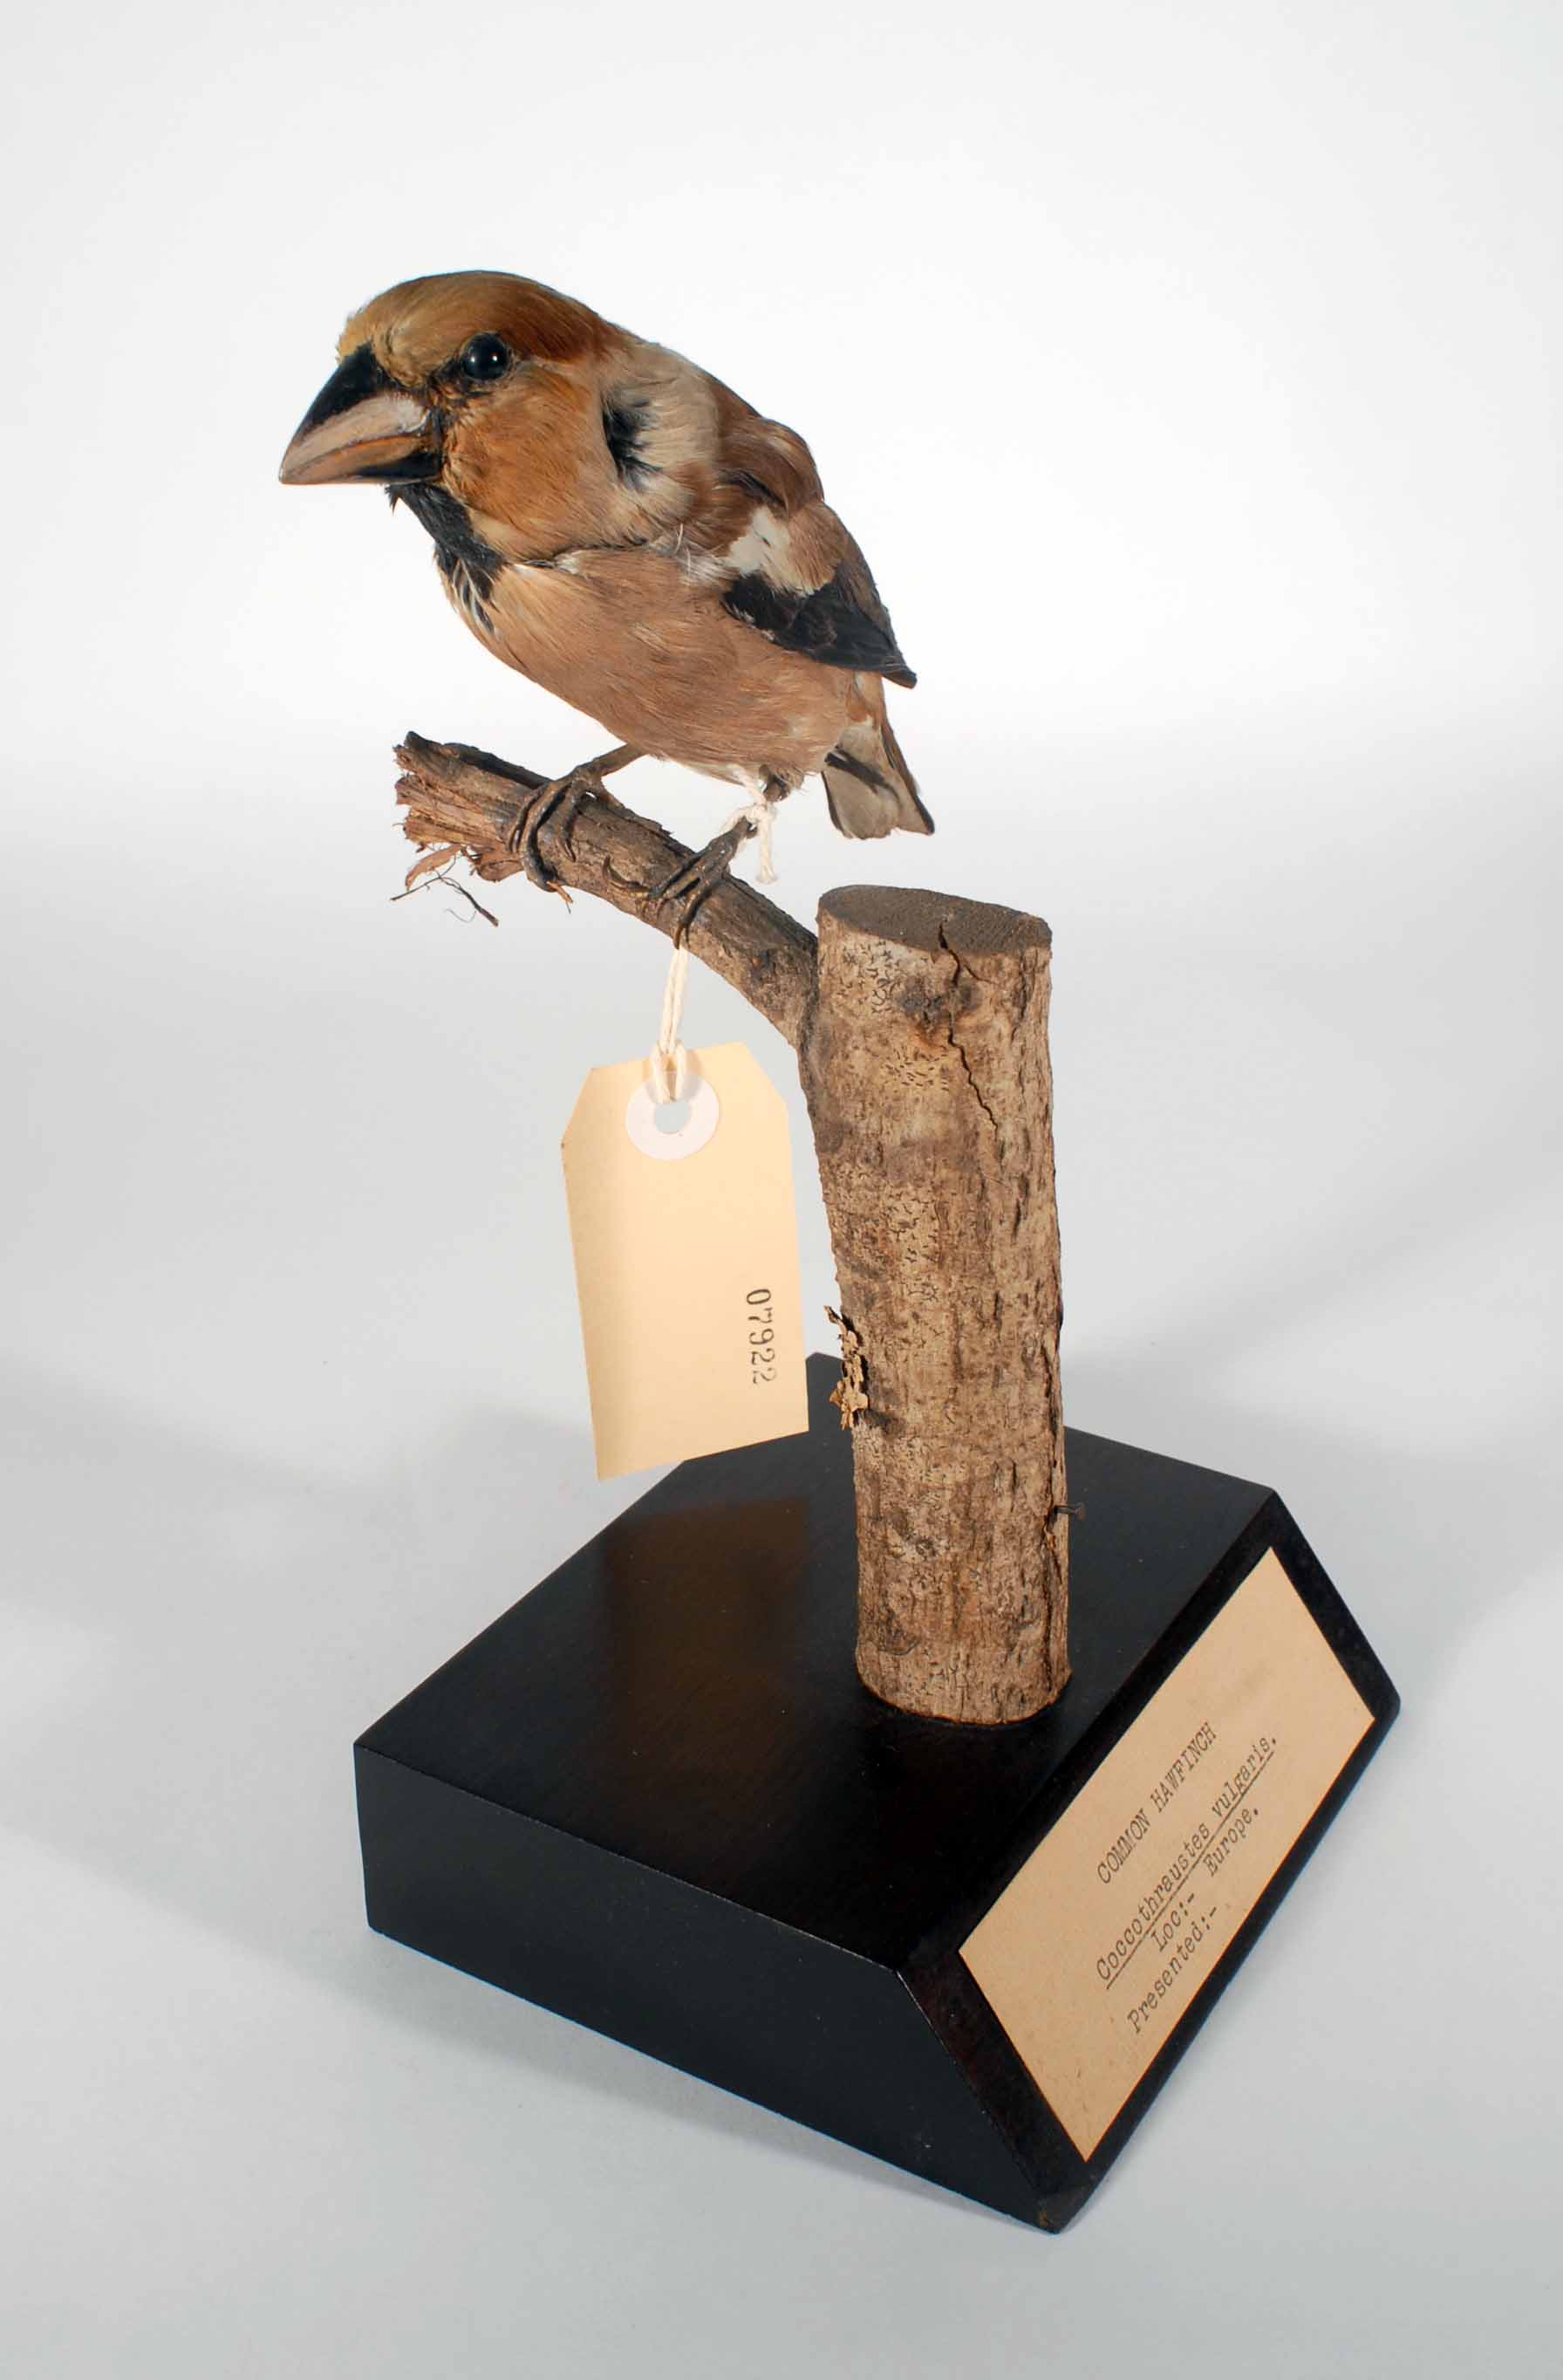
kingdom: Animalia
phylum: Chordata
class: Aves
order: Passeriformes
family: Fringillidae
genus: Coccothraustes
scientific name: Coccothraustes coccothraustes
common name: Hawfinch
